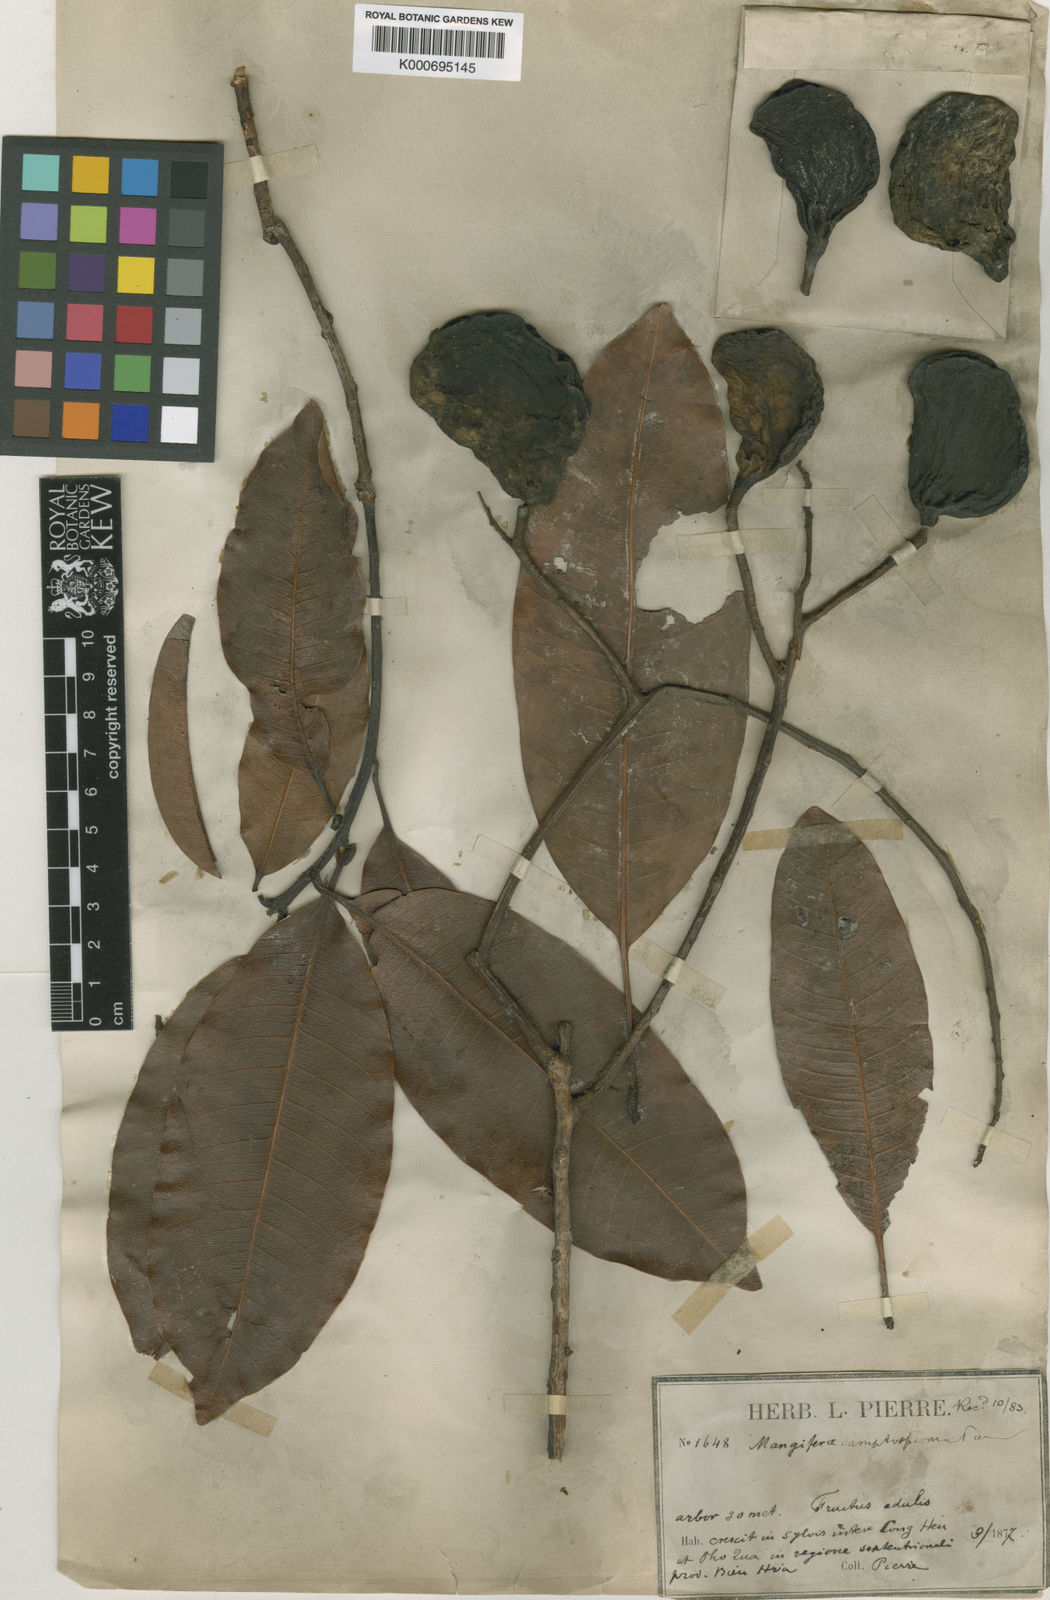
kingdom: Plantae
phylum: Tracheophyta
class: Magnoliopsida
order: Sapindales
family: Anacardiaceae
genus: Mangifera
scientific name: Mangifera camptosperma
